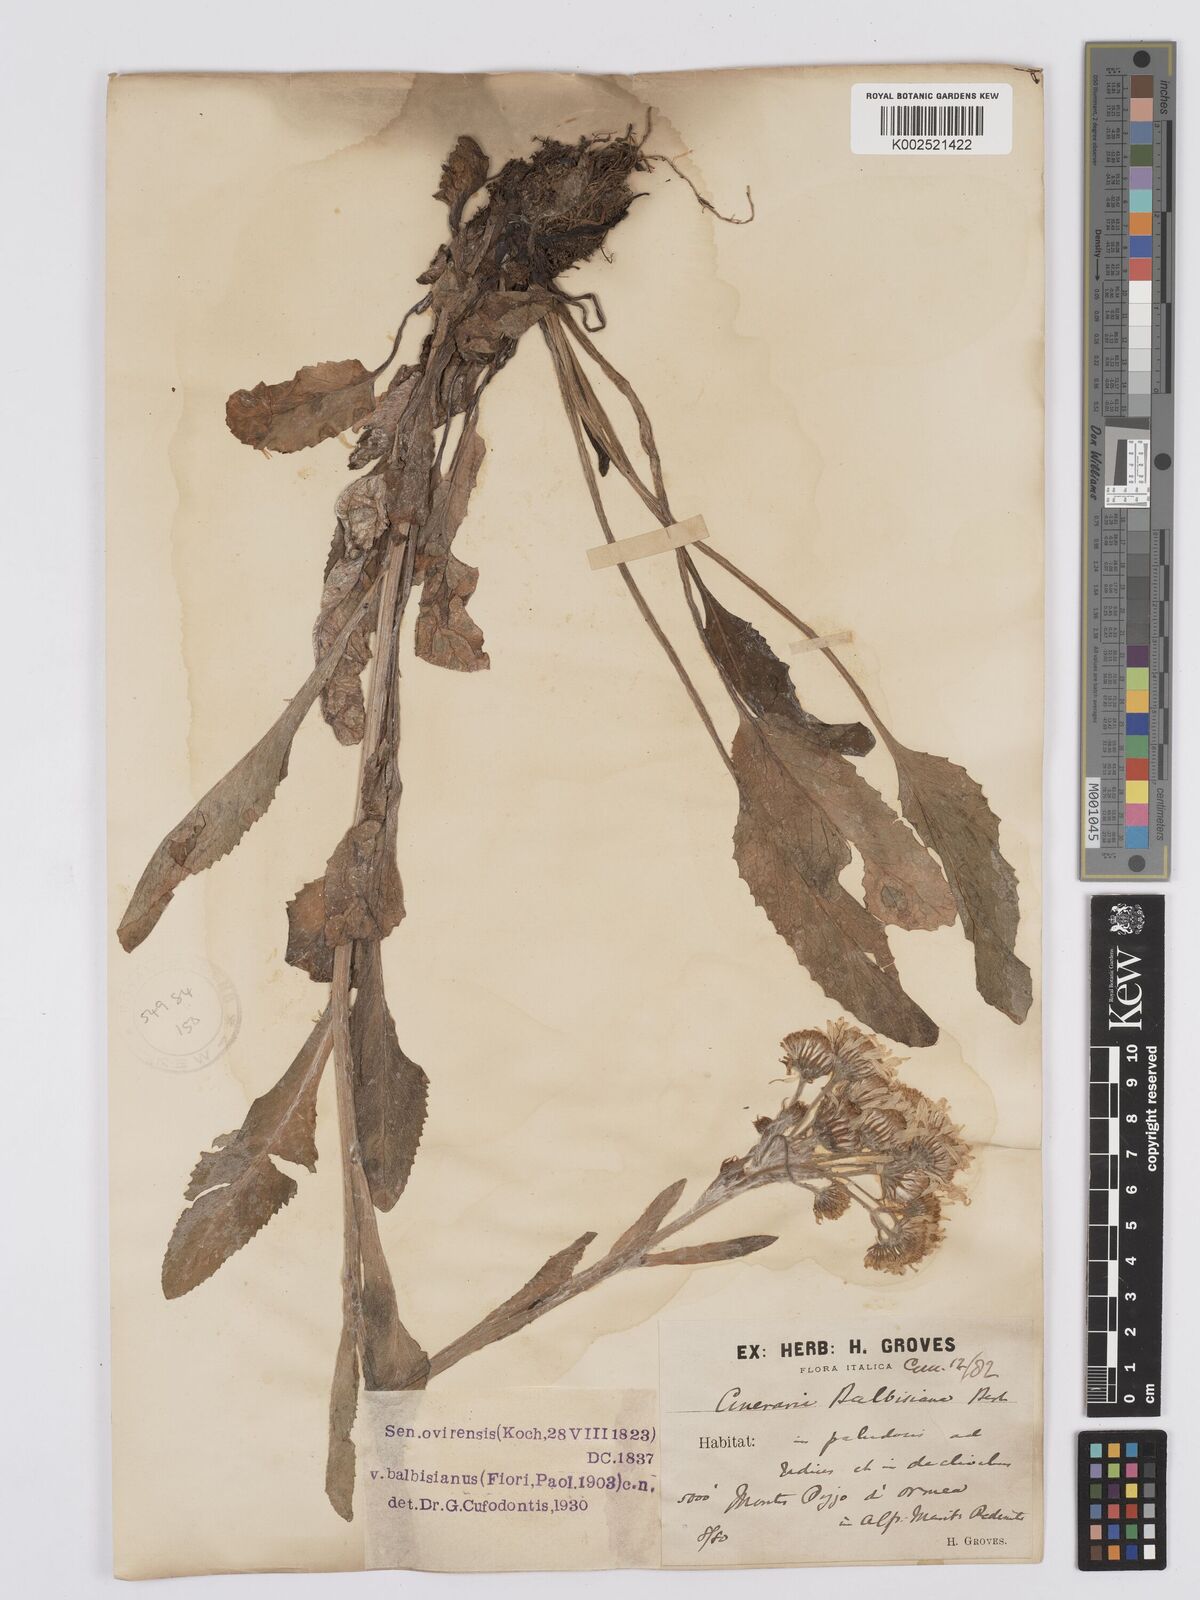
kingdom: Plantae
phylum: Tracheophyta
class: Magnoliopsida
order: Asterales
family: Asteraceae
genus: Tephroseris
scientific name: Tephroseris balbisiana
